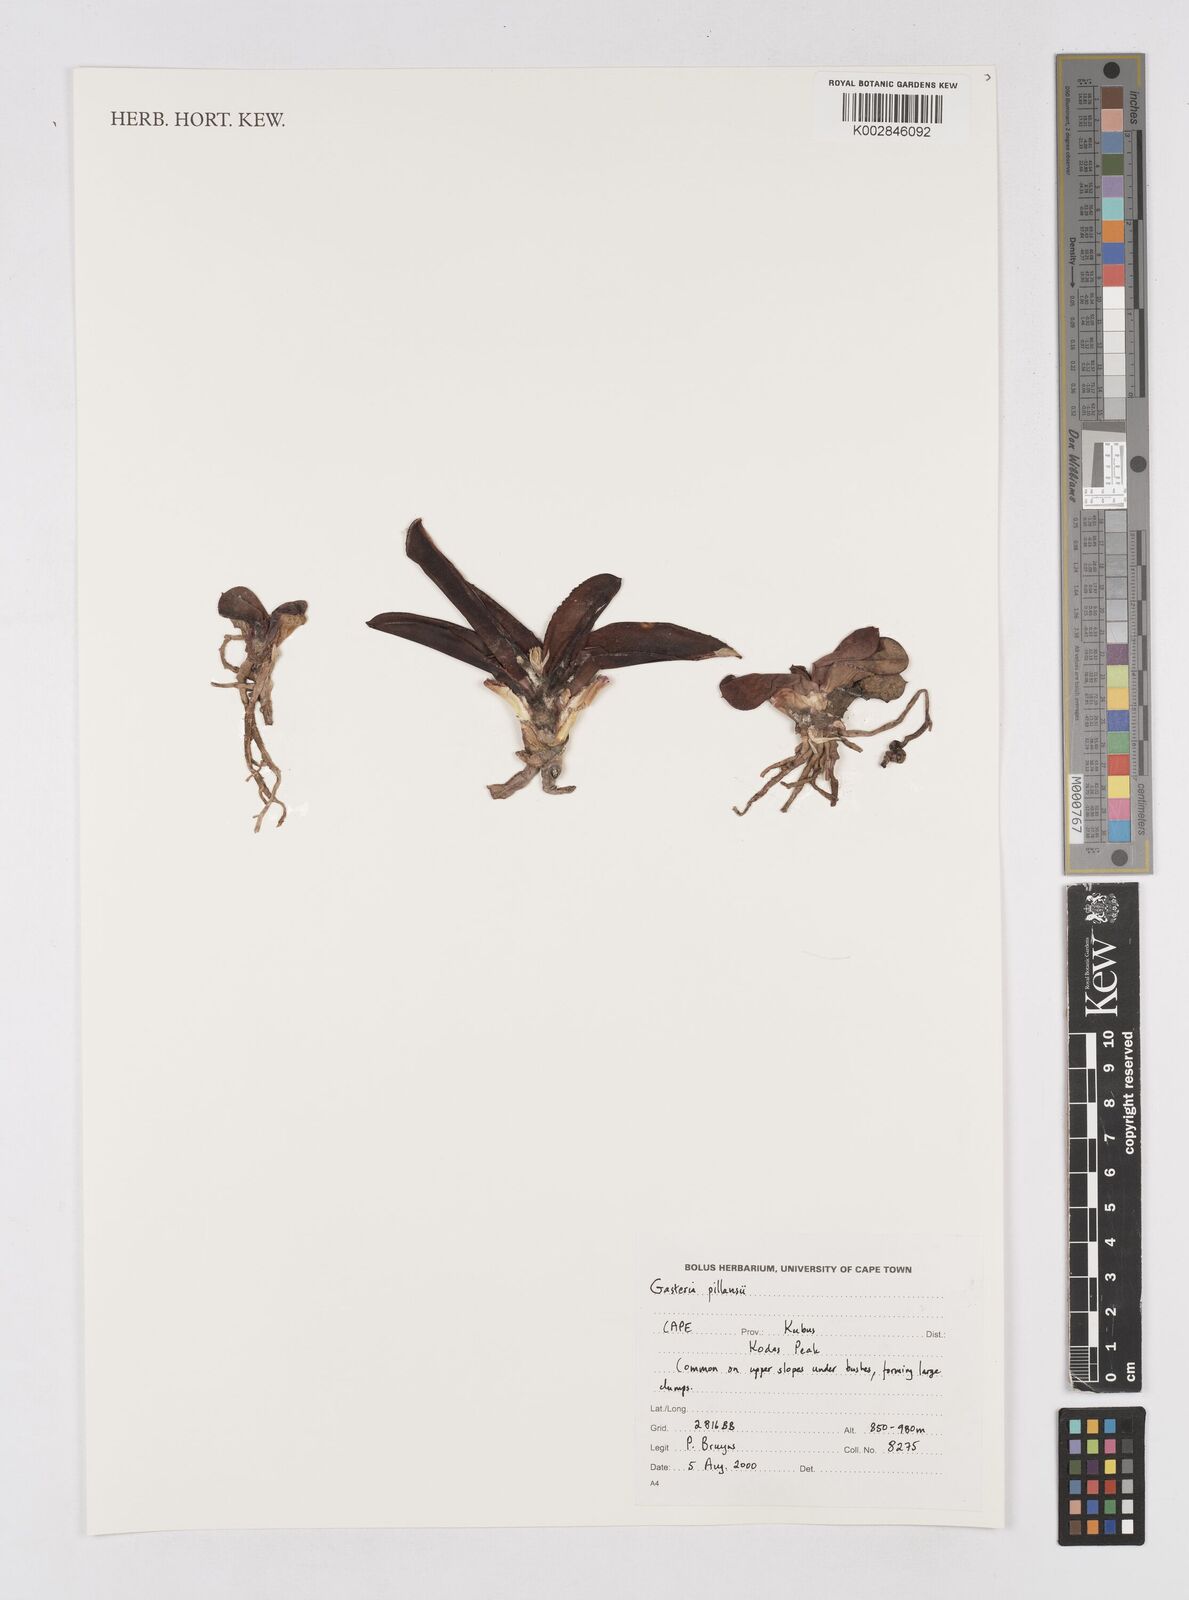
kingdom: Plantae
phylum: Tracheophyta
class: Liliopsida
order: Asparagales
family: Asphodelaceae
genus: Gasteria
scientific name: Gasteria pillansii
